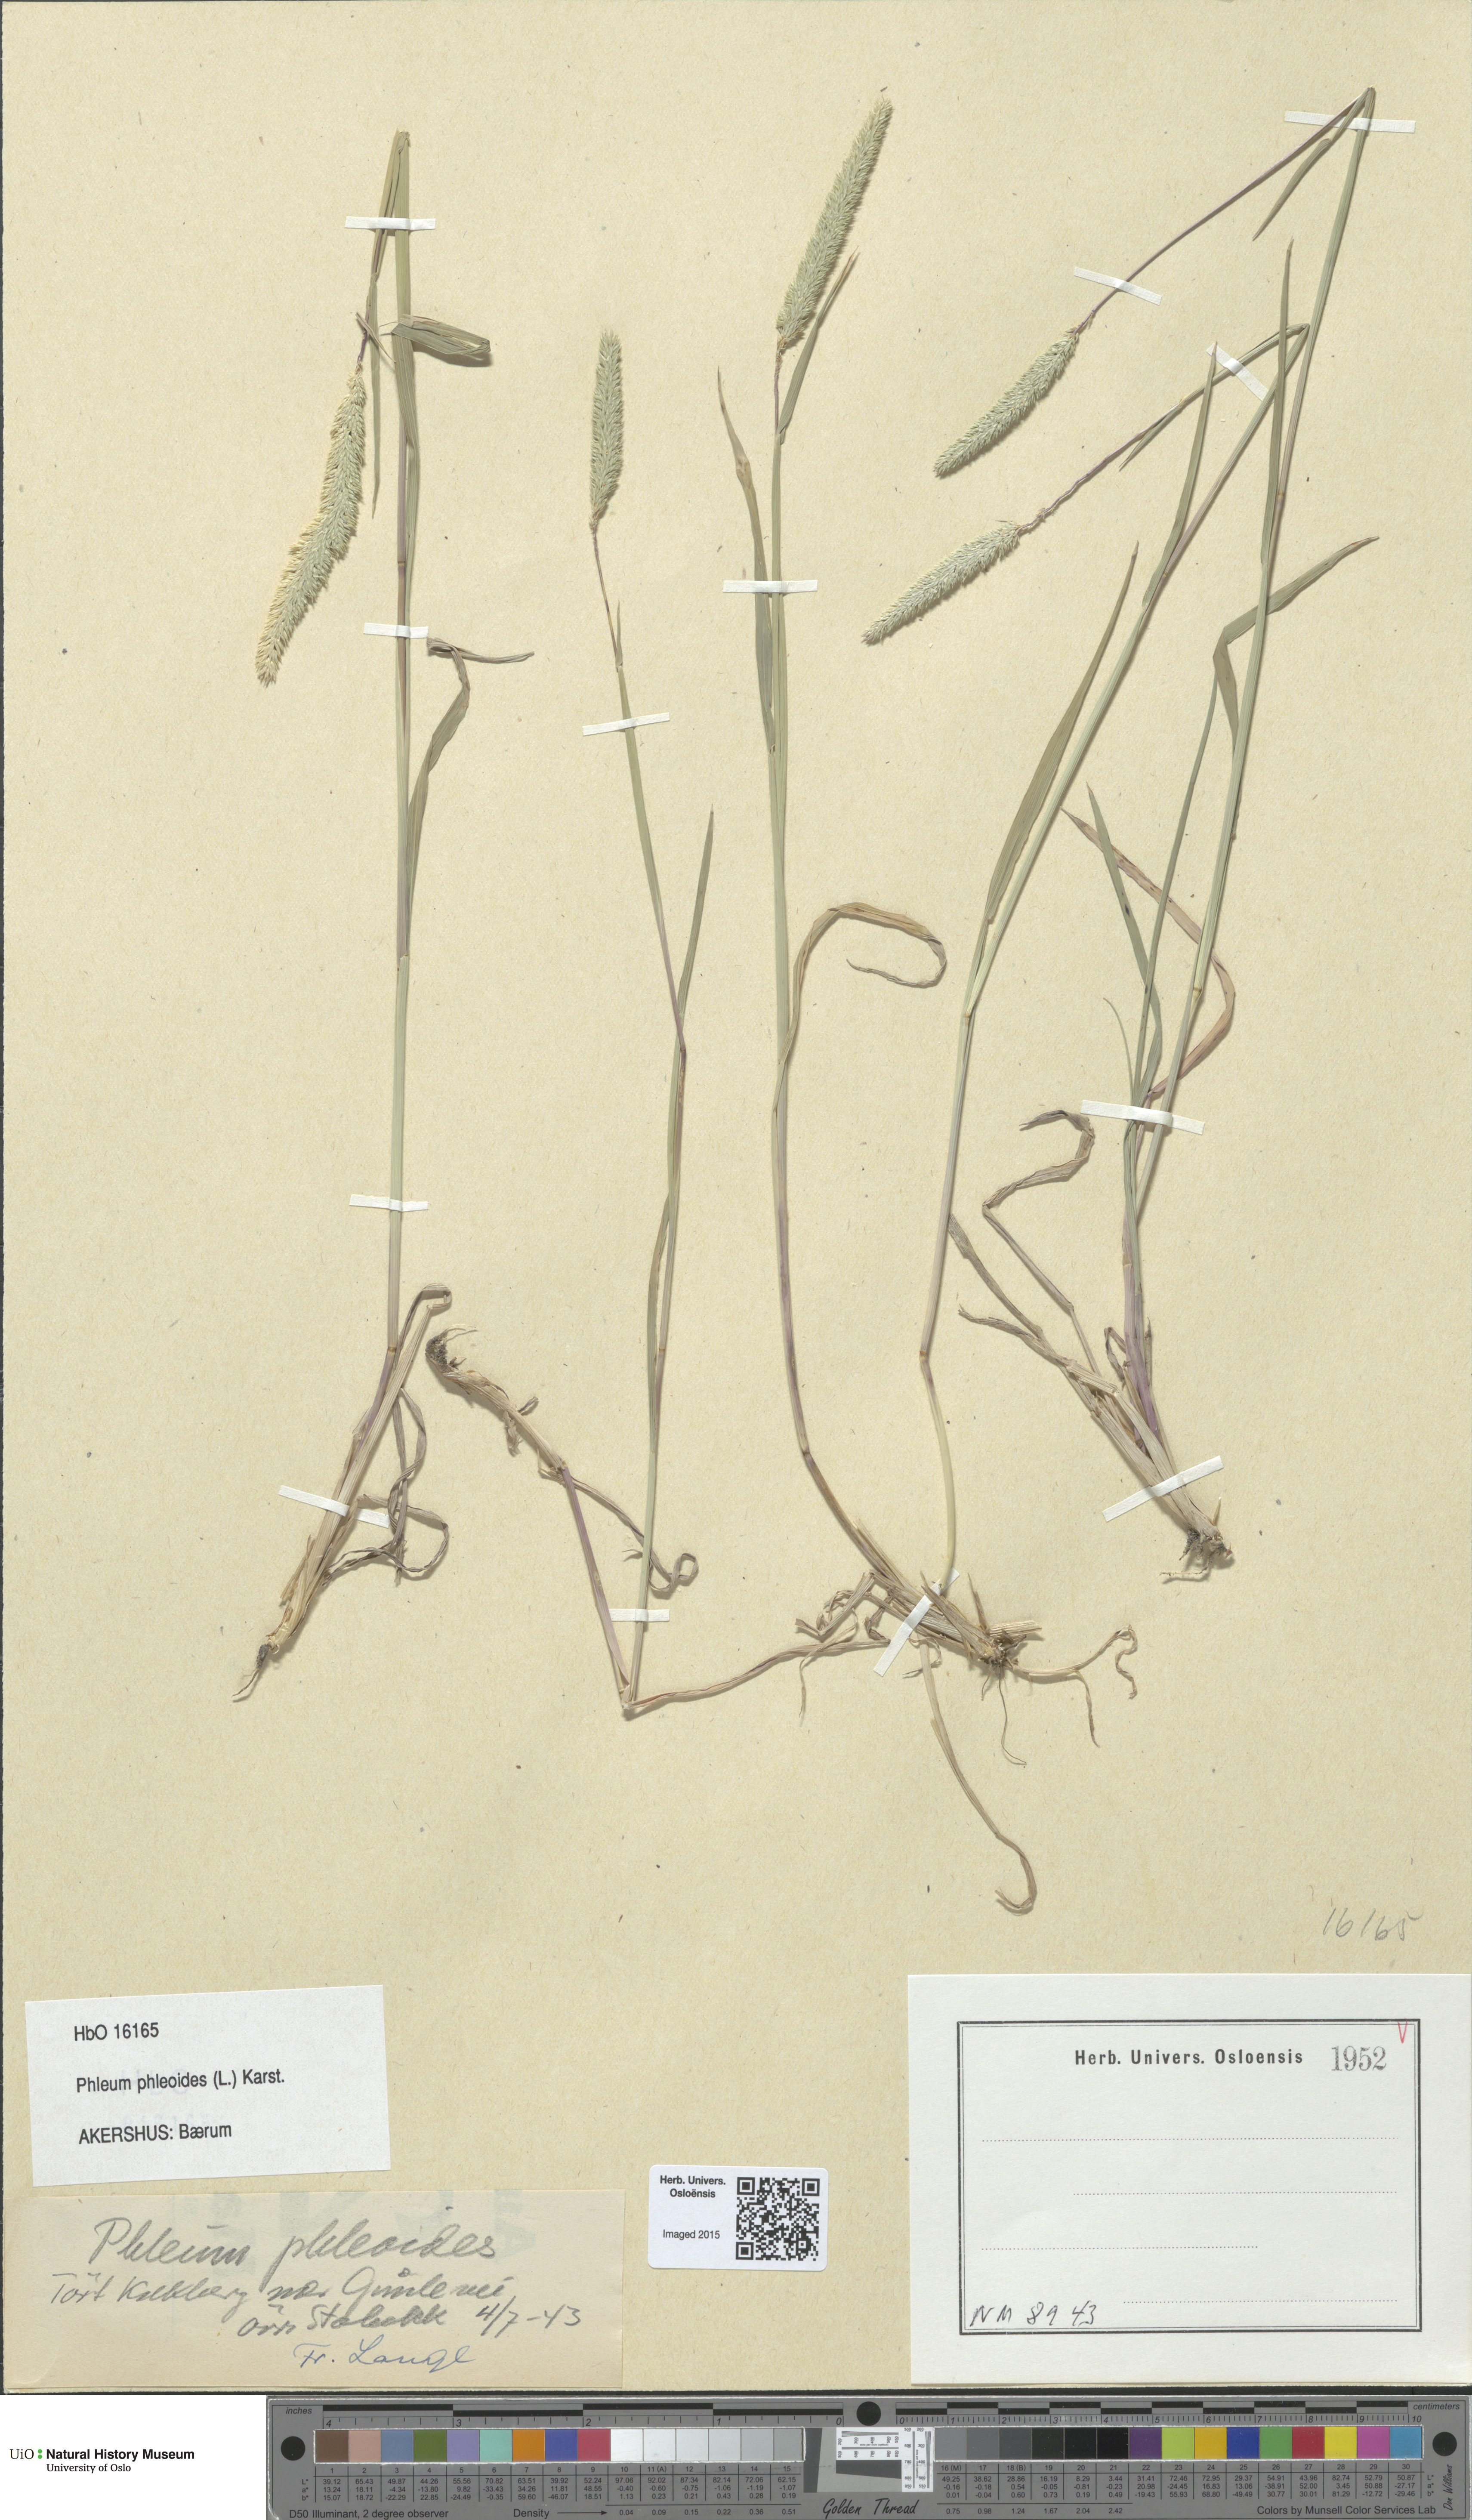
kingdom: Plantae
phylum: Tracheophyta
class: Liliopsida
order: Poales
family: Poaceae
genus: Phleum
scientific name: Phleum phleoides
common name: Purple-stem cat's-tail
